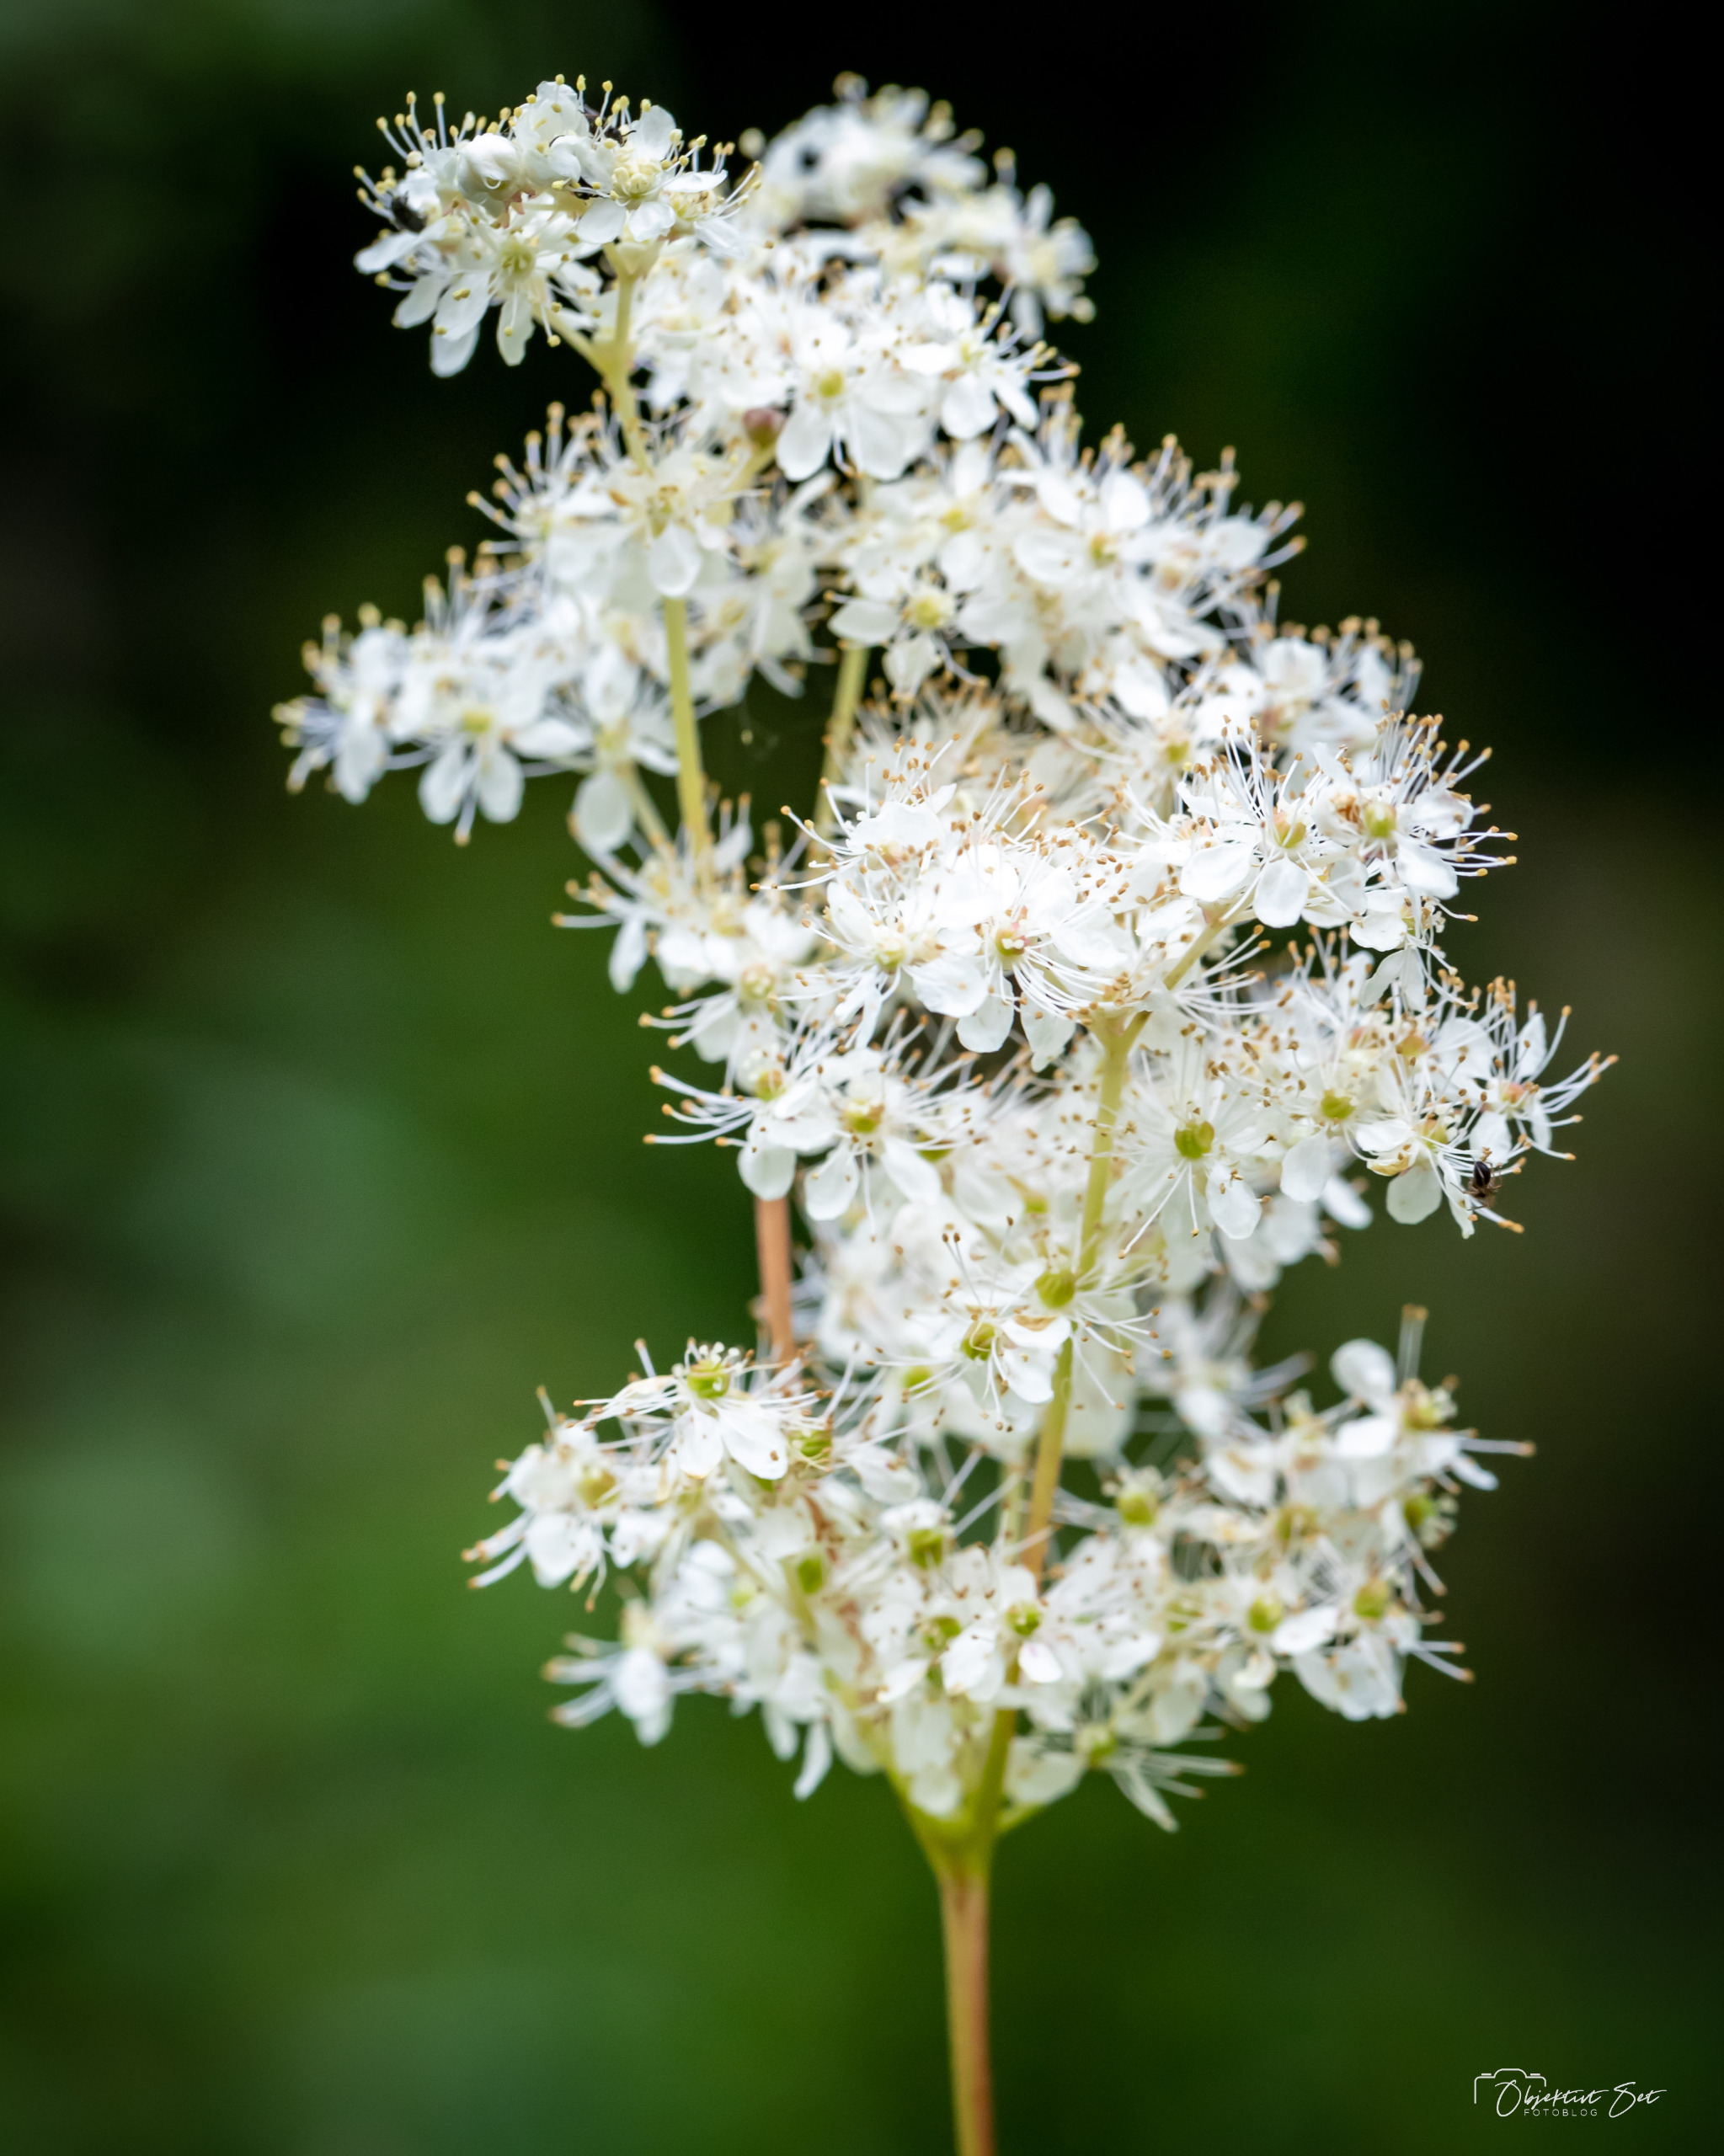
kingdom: Plantae
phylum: Tracheophyta
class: Magnoliopsida
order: Rosales
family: Rosaceae
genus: Filipendula
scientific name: Filipendula
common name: Mjødurtslægten
